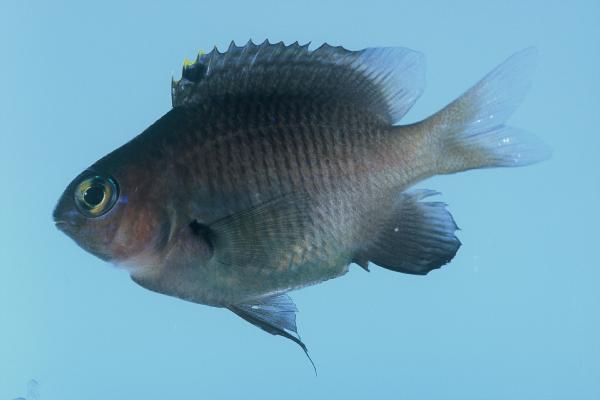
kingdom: Animalia
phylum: Chordata
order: Perciformes
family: Pomacentridae
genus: Stegastes
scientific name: Stegastes fasciolatus
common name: Pacific gregory
